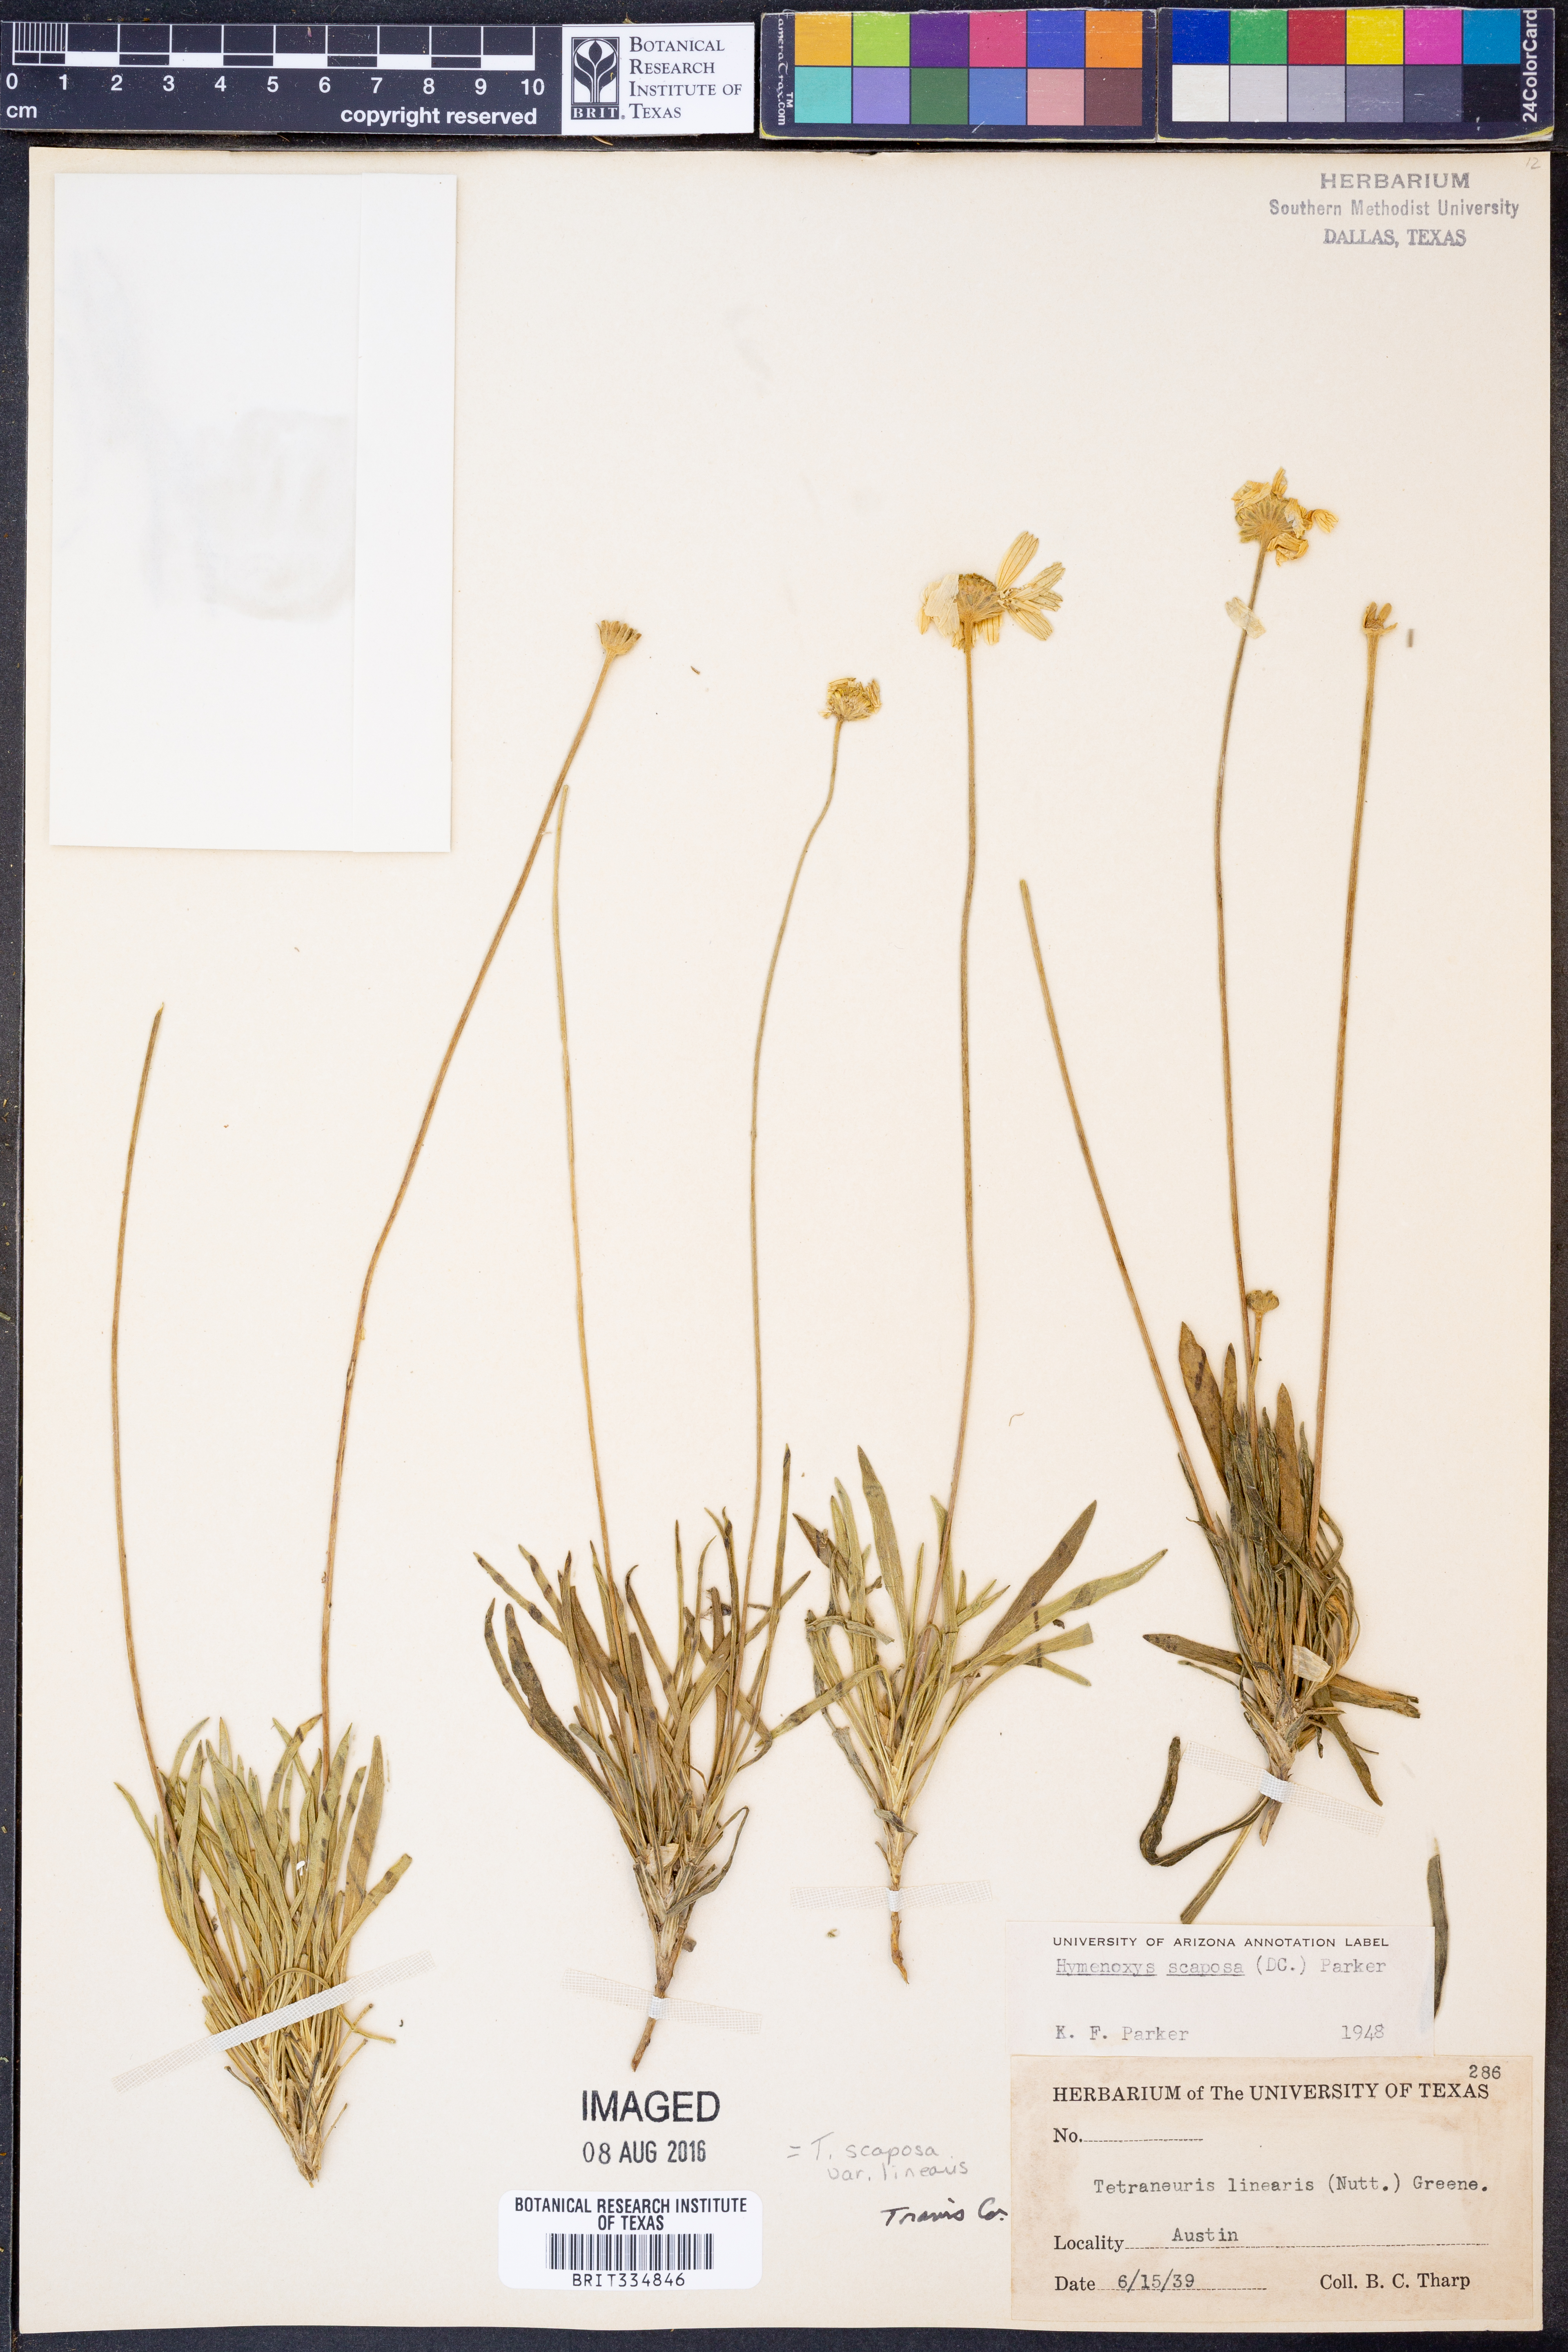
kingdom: Plantae
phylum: Tracheophyta
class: Magnoliopsida
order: Asterales
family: Asteraceae
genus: Tetraneuris
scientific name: Tetraneuris scaposa
